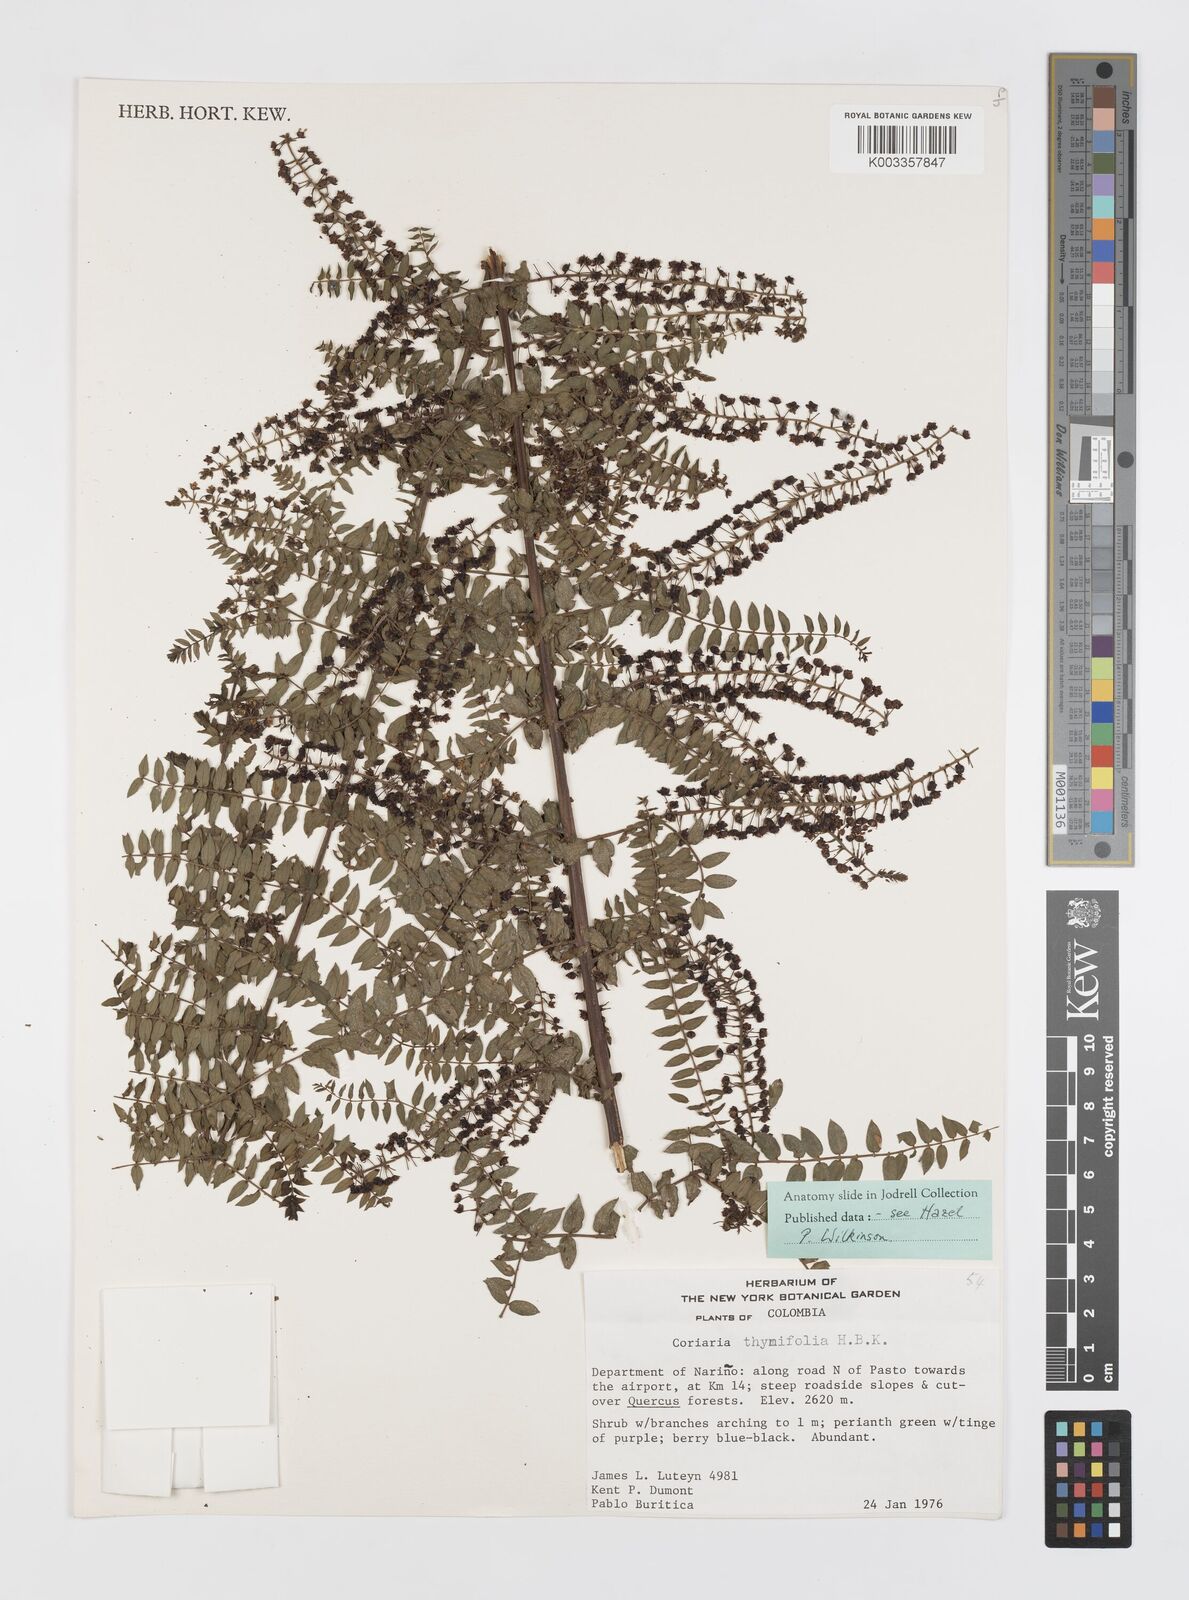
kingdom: Plantae
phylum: Tracheophyta
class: Magnoliopsida
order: Cucurbitales
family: Coriariaceae
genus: Coriaria
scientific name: Coriaria microphylla
